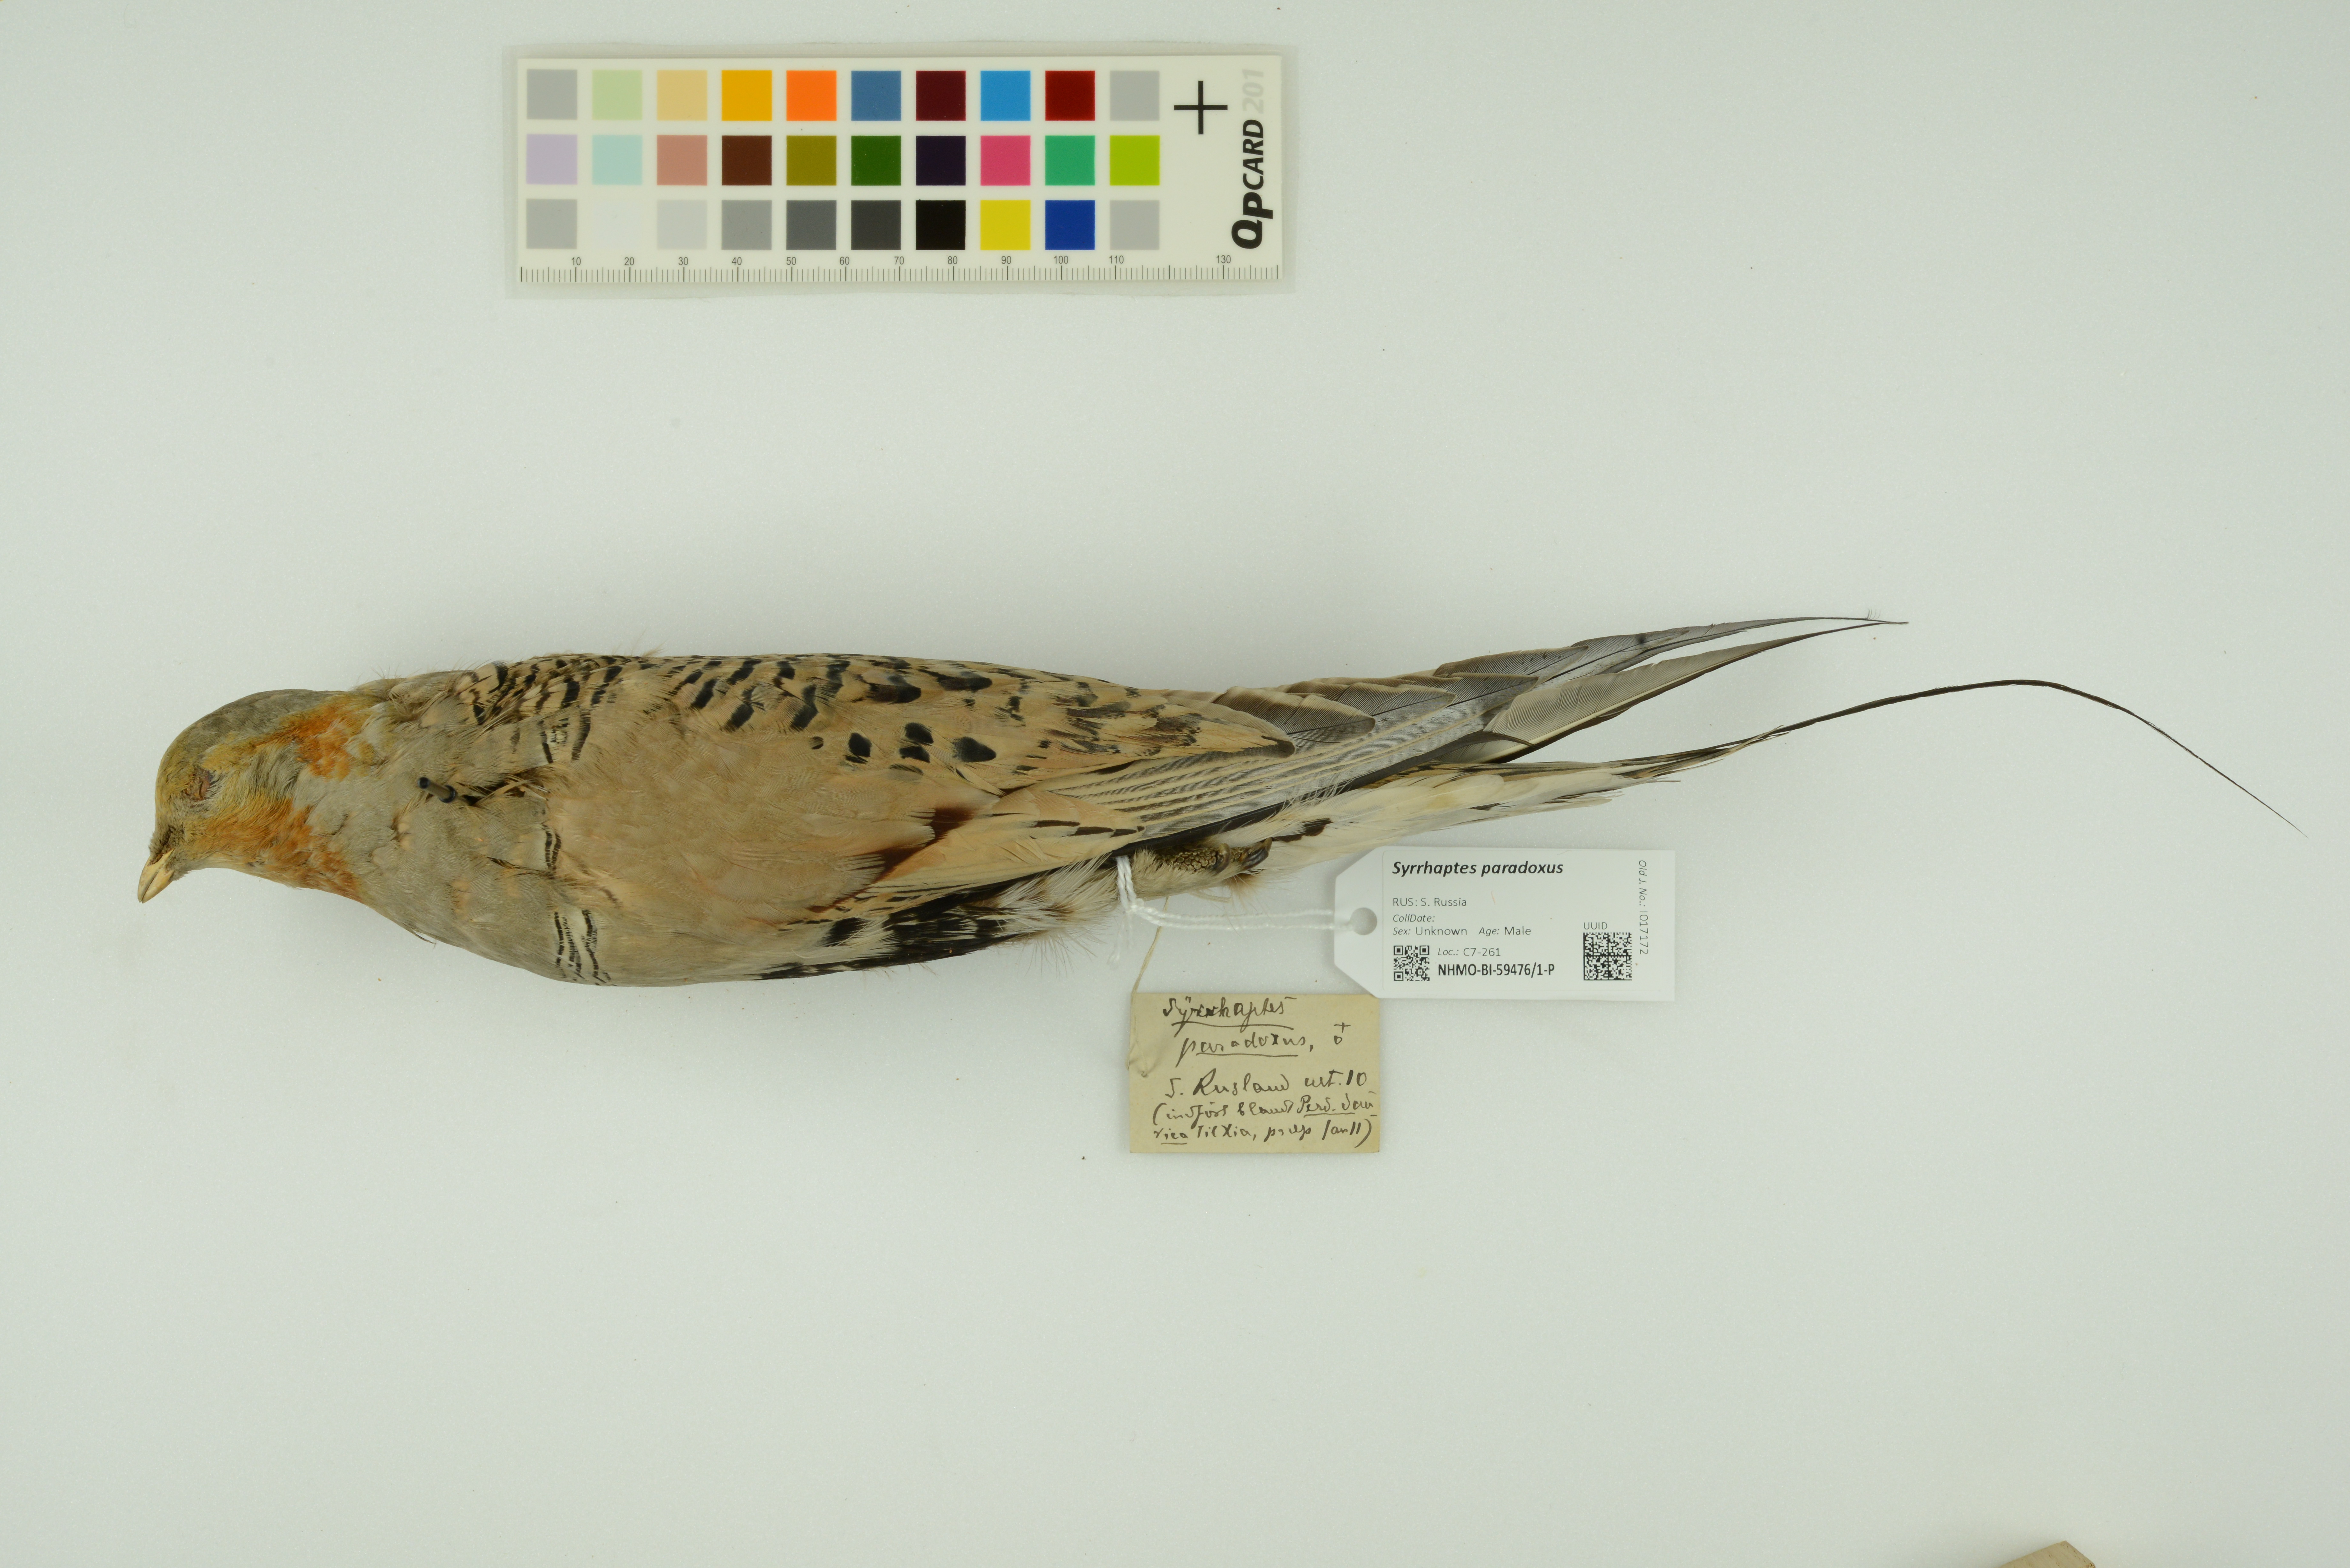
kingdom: Animalia
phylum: Chordata
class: Aves
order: Pteroclidiformes
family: Pteroclididae
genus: Syrrhaptes
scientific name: Syrrhaptes paradoxus
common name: Pallas's sandgrouse
